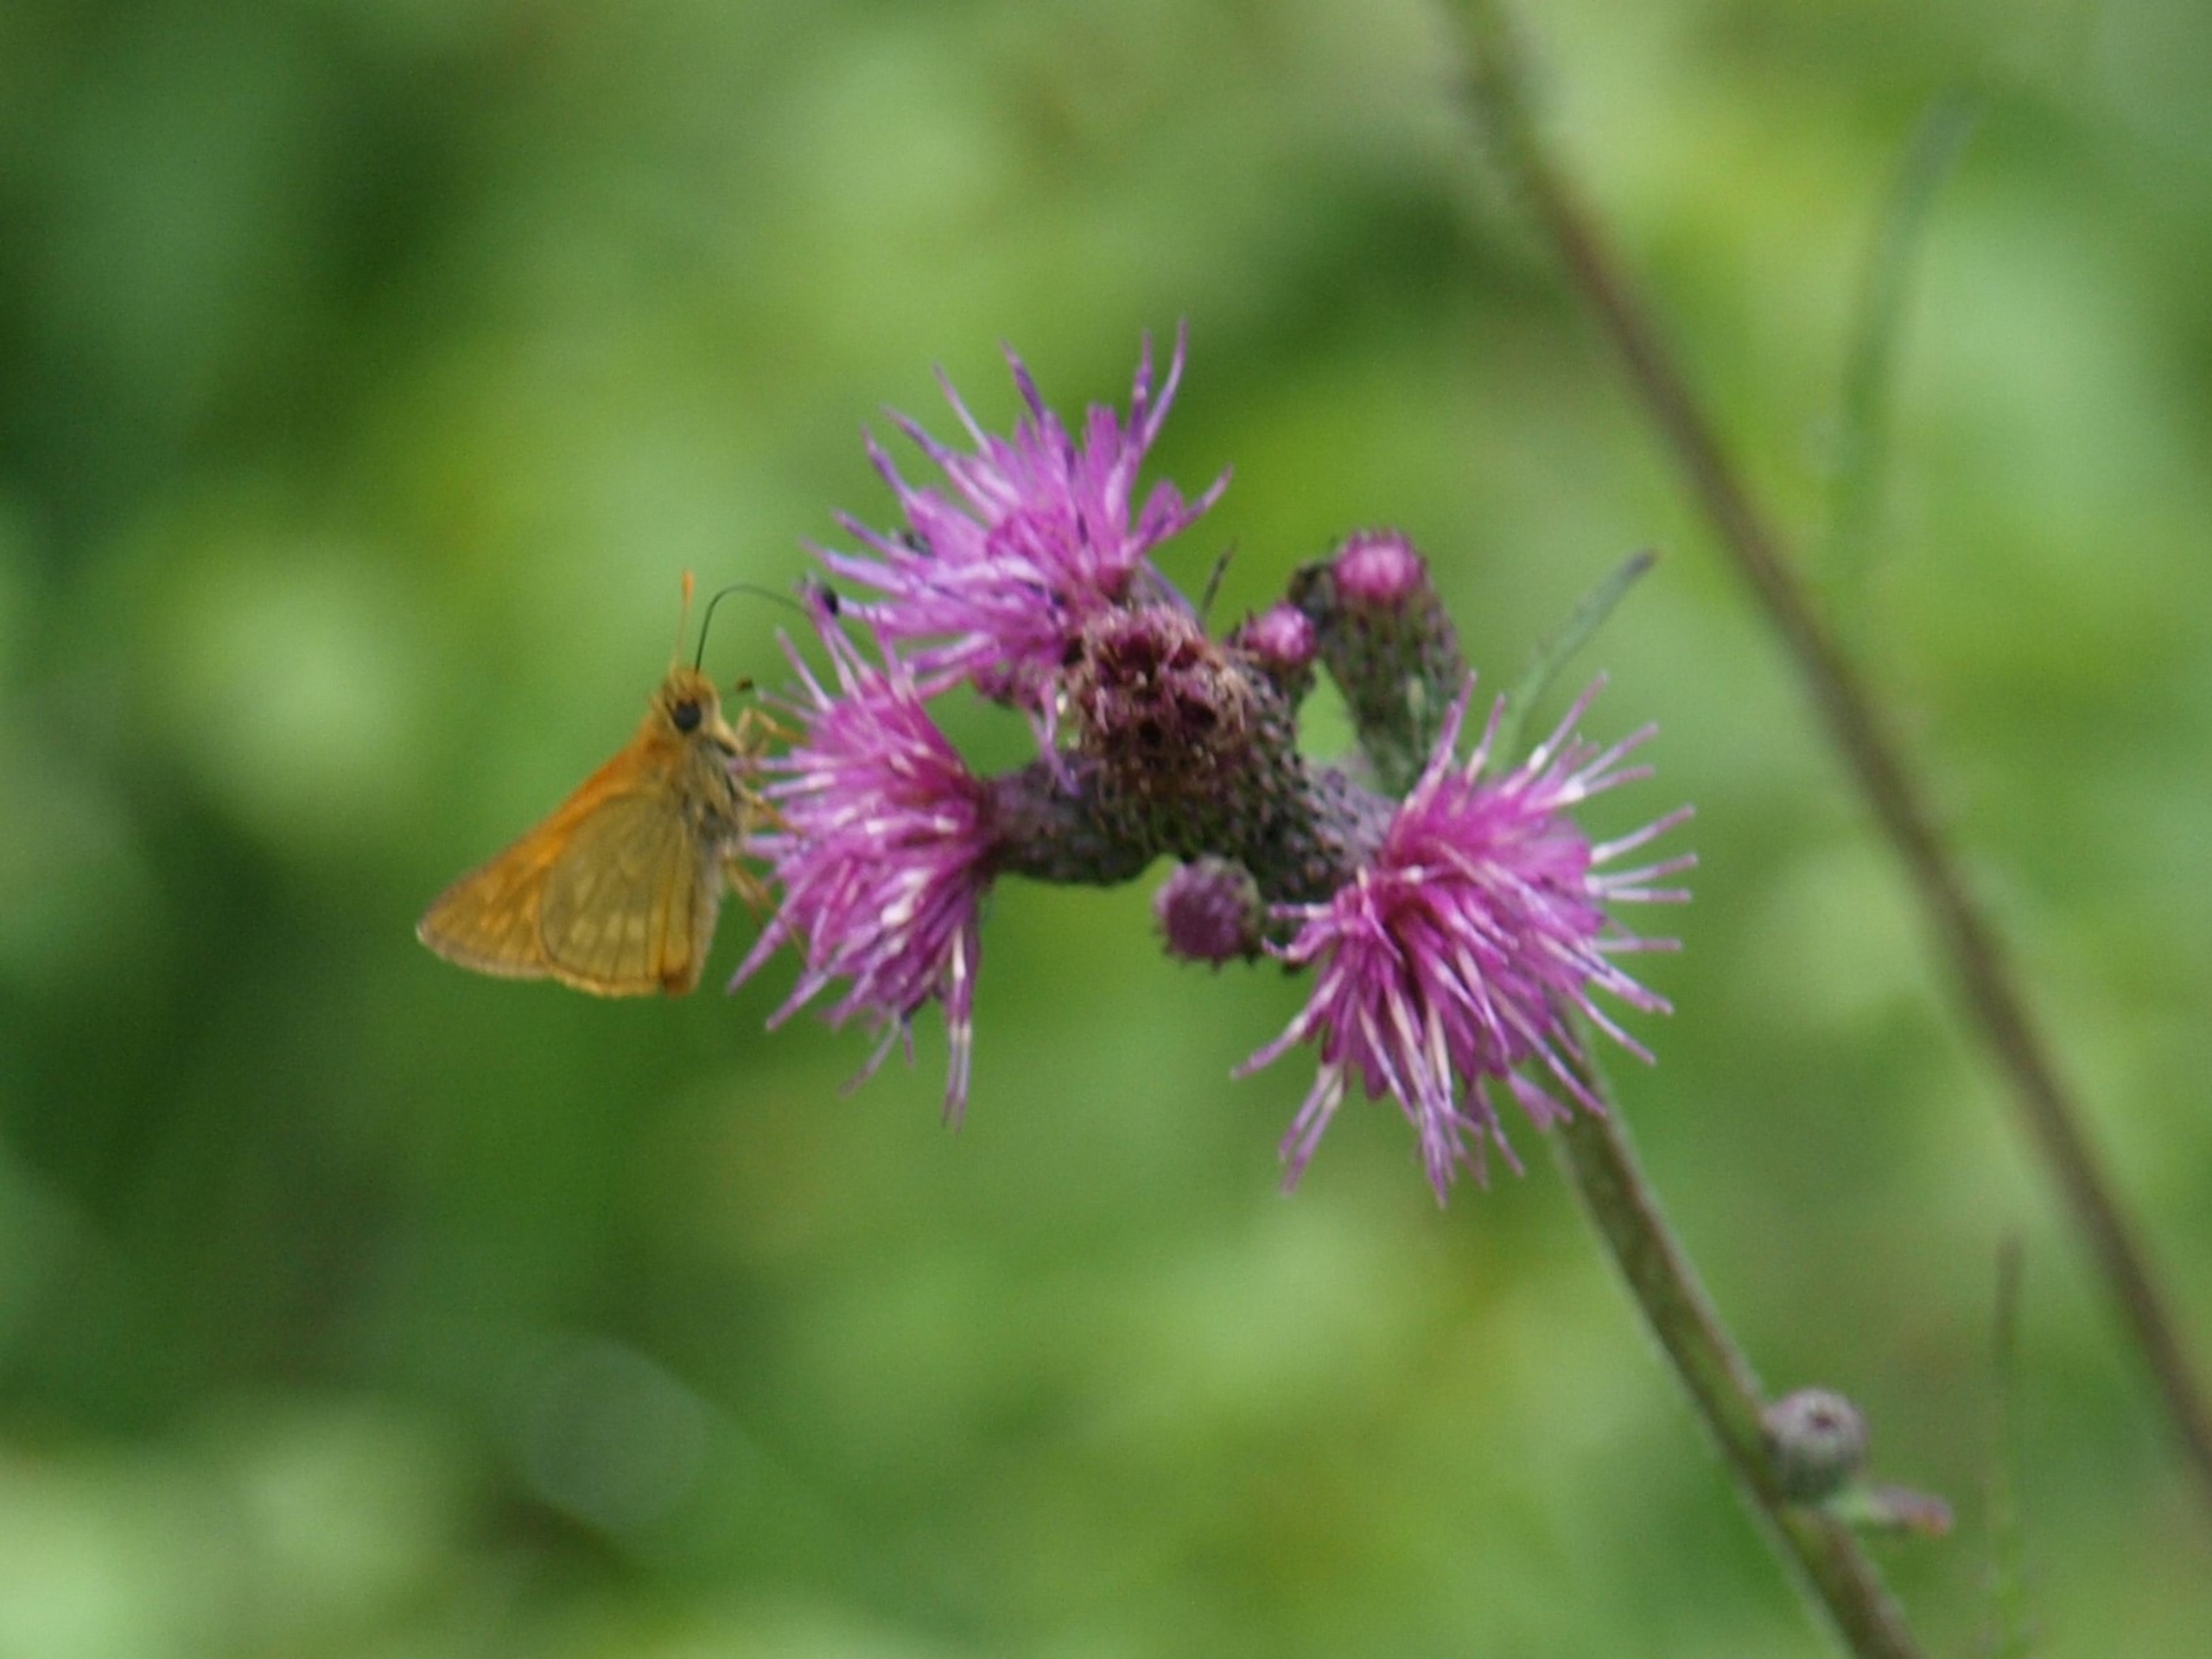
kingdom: Animalia
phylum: Arthropoda
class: Insecta
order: Lepidoptera
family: Hesperiidae
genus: Ochlodes
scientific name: Ochlodes venata
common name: Stor bredpande
